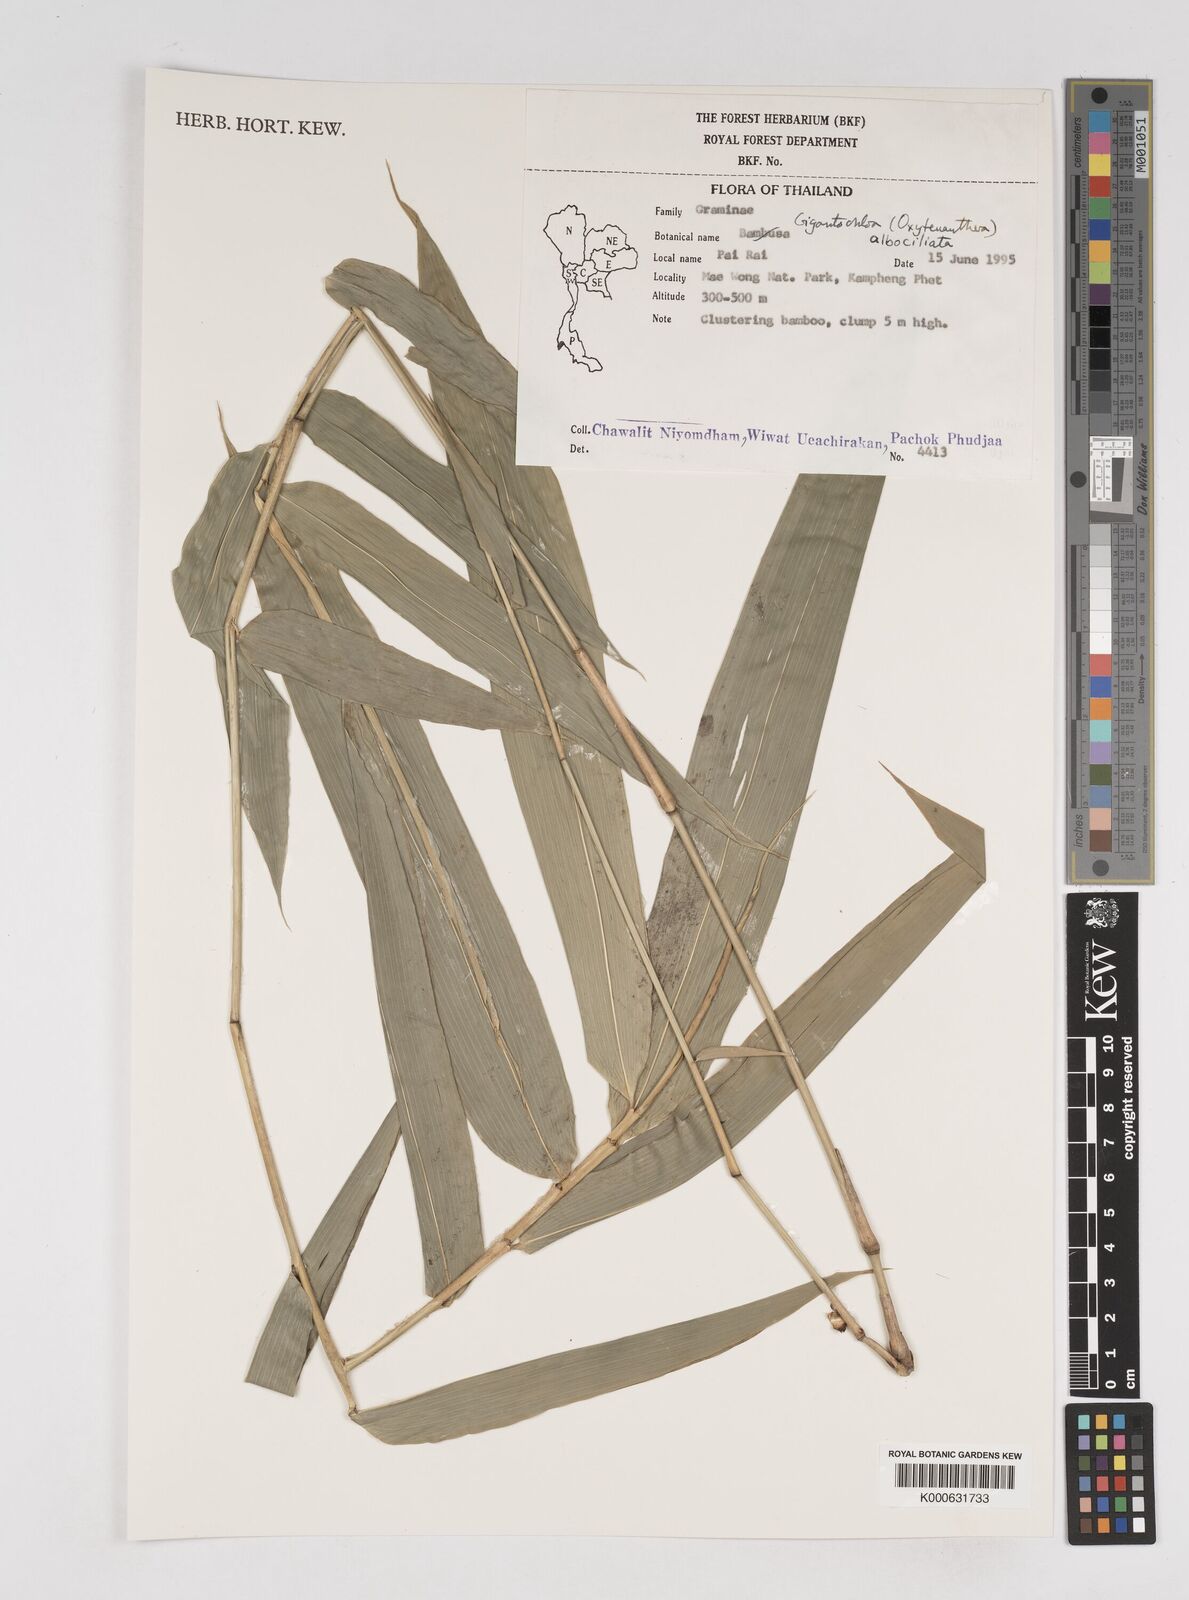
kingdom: Plantae
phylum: Tracheophyta
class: Liliopsida
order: Poales
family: Poaceae
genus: Gigantochloa
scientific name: Gigantochloa albociliata
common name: White-fringe gigantochloa
